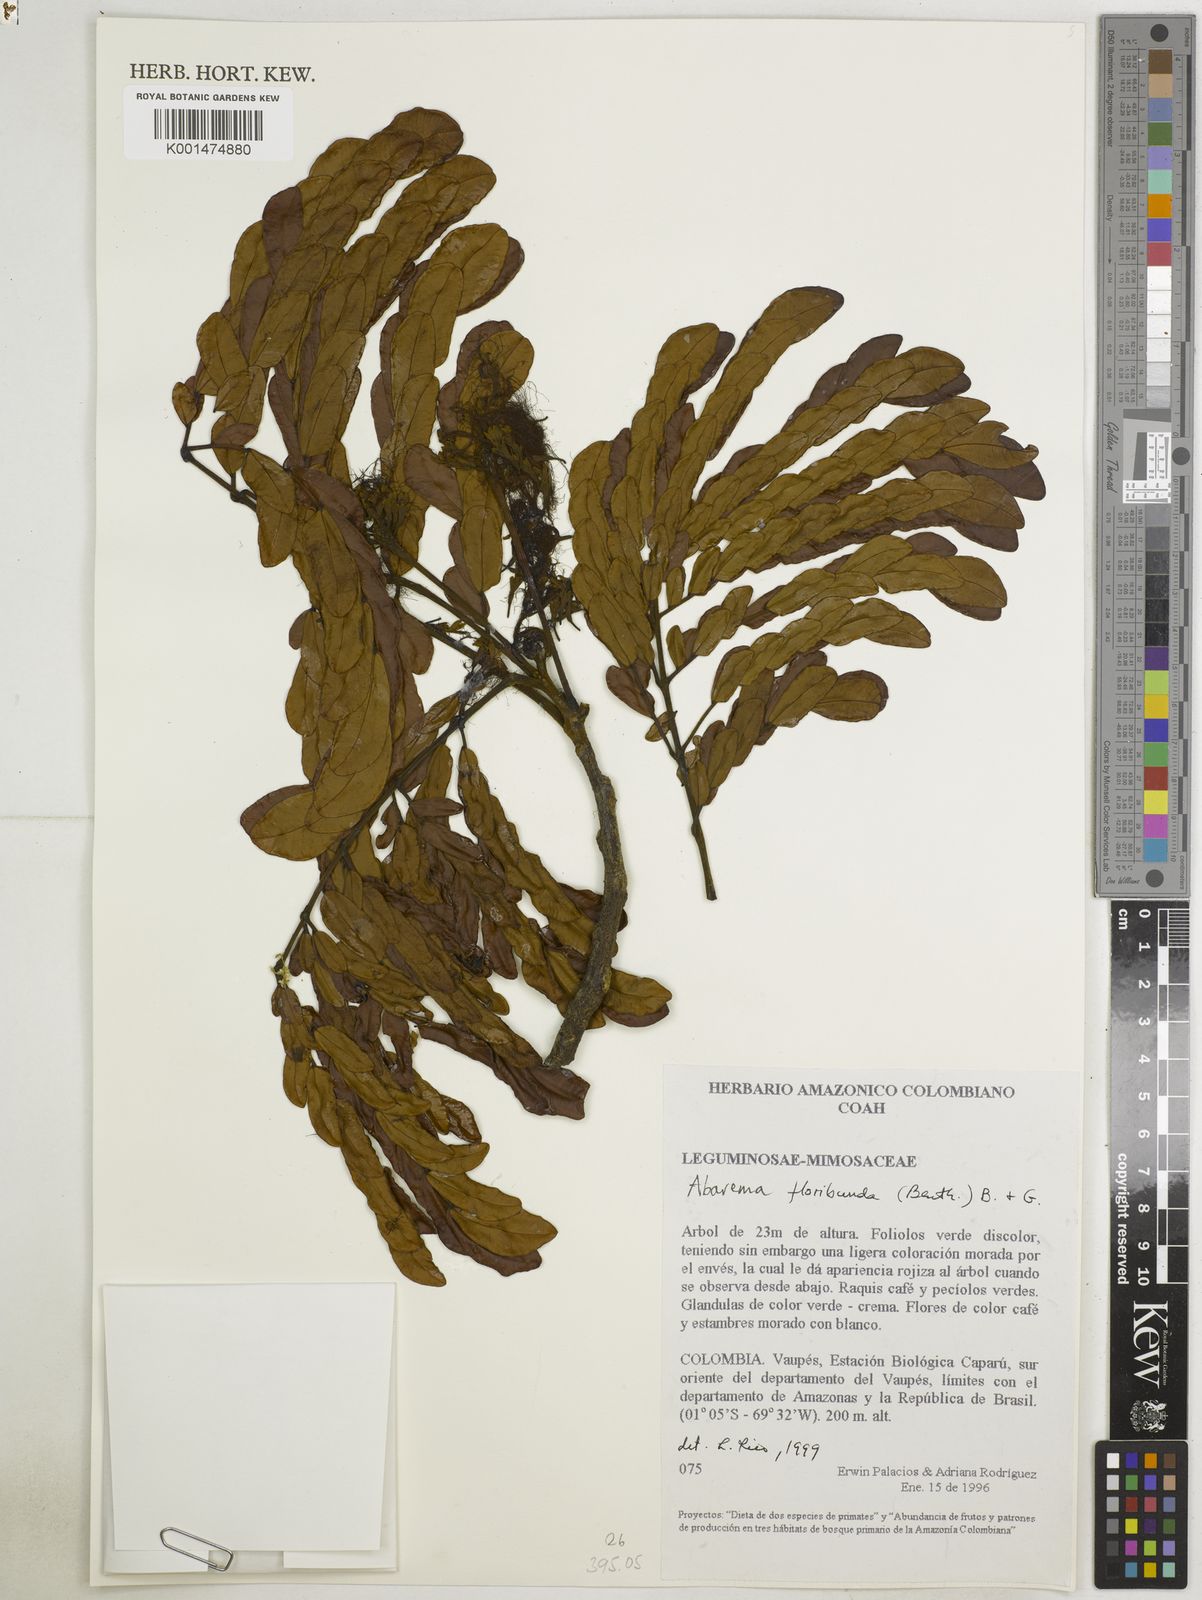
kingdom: Plantae
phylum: Tracheophyta
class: Magnoliopsida
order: Fabales
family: Fabaceae
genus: Jupunba
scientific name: Jupunba floribunda
